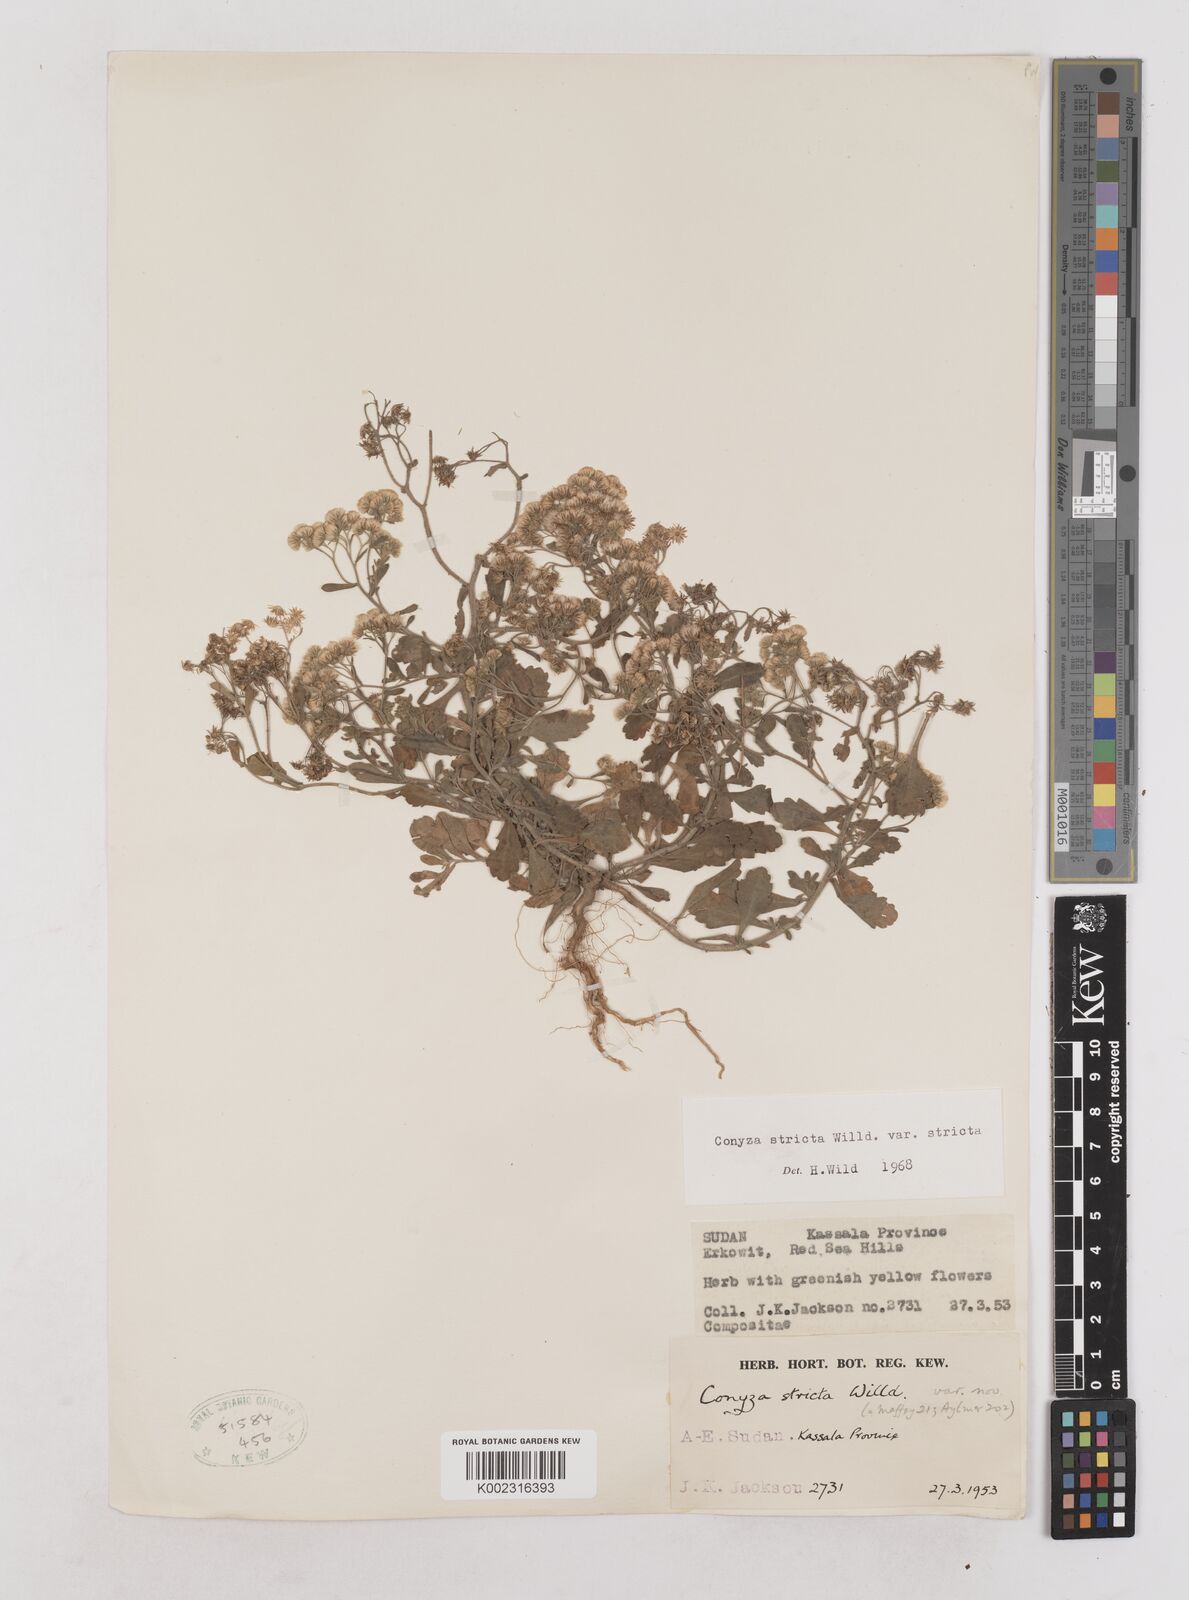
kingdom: Plantae
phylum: Tracheophyta
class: Magnoliopsida
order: Asterales
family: Asteraceae
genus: Nidorella
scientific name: Nidorella triloba
